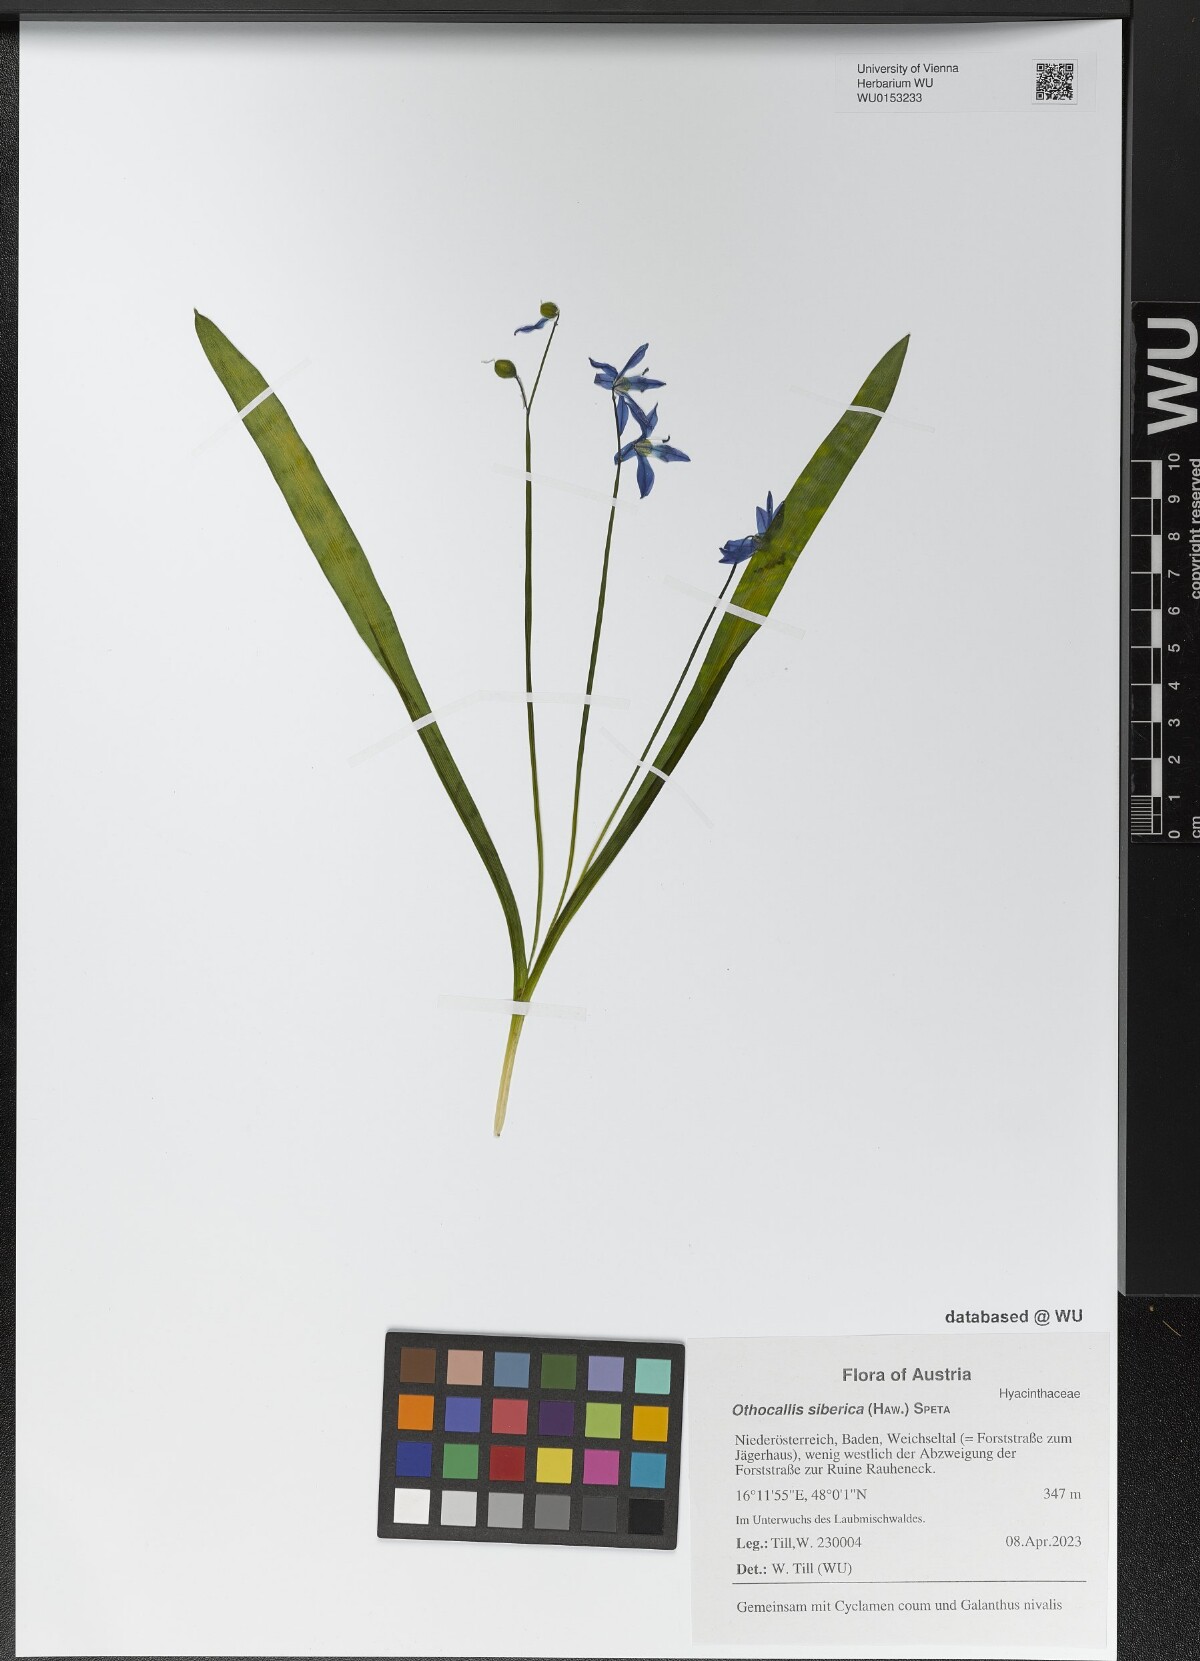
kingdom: Plantae
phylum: Tracheophyta
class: Liliopsida
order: Asparagales
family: Asparagaceae
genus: Scilla
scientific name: Scilla siberica
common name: Siberian squill
